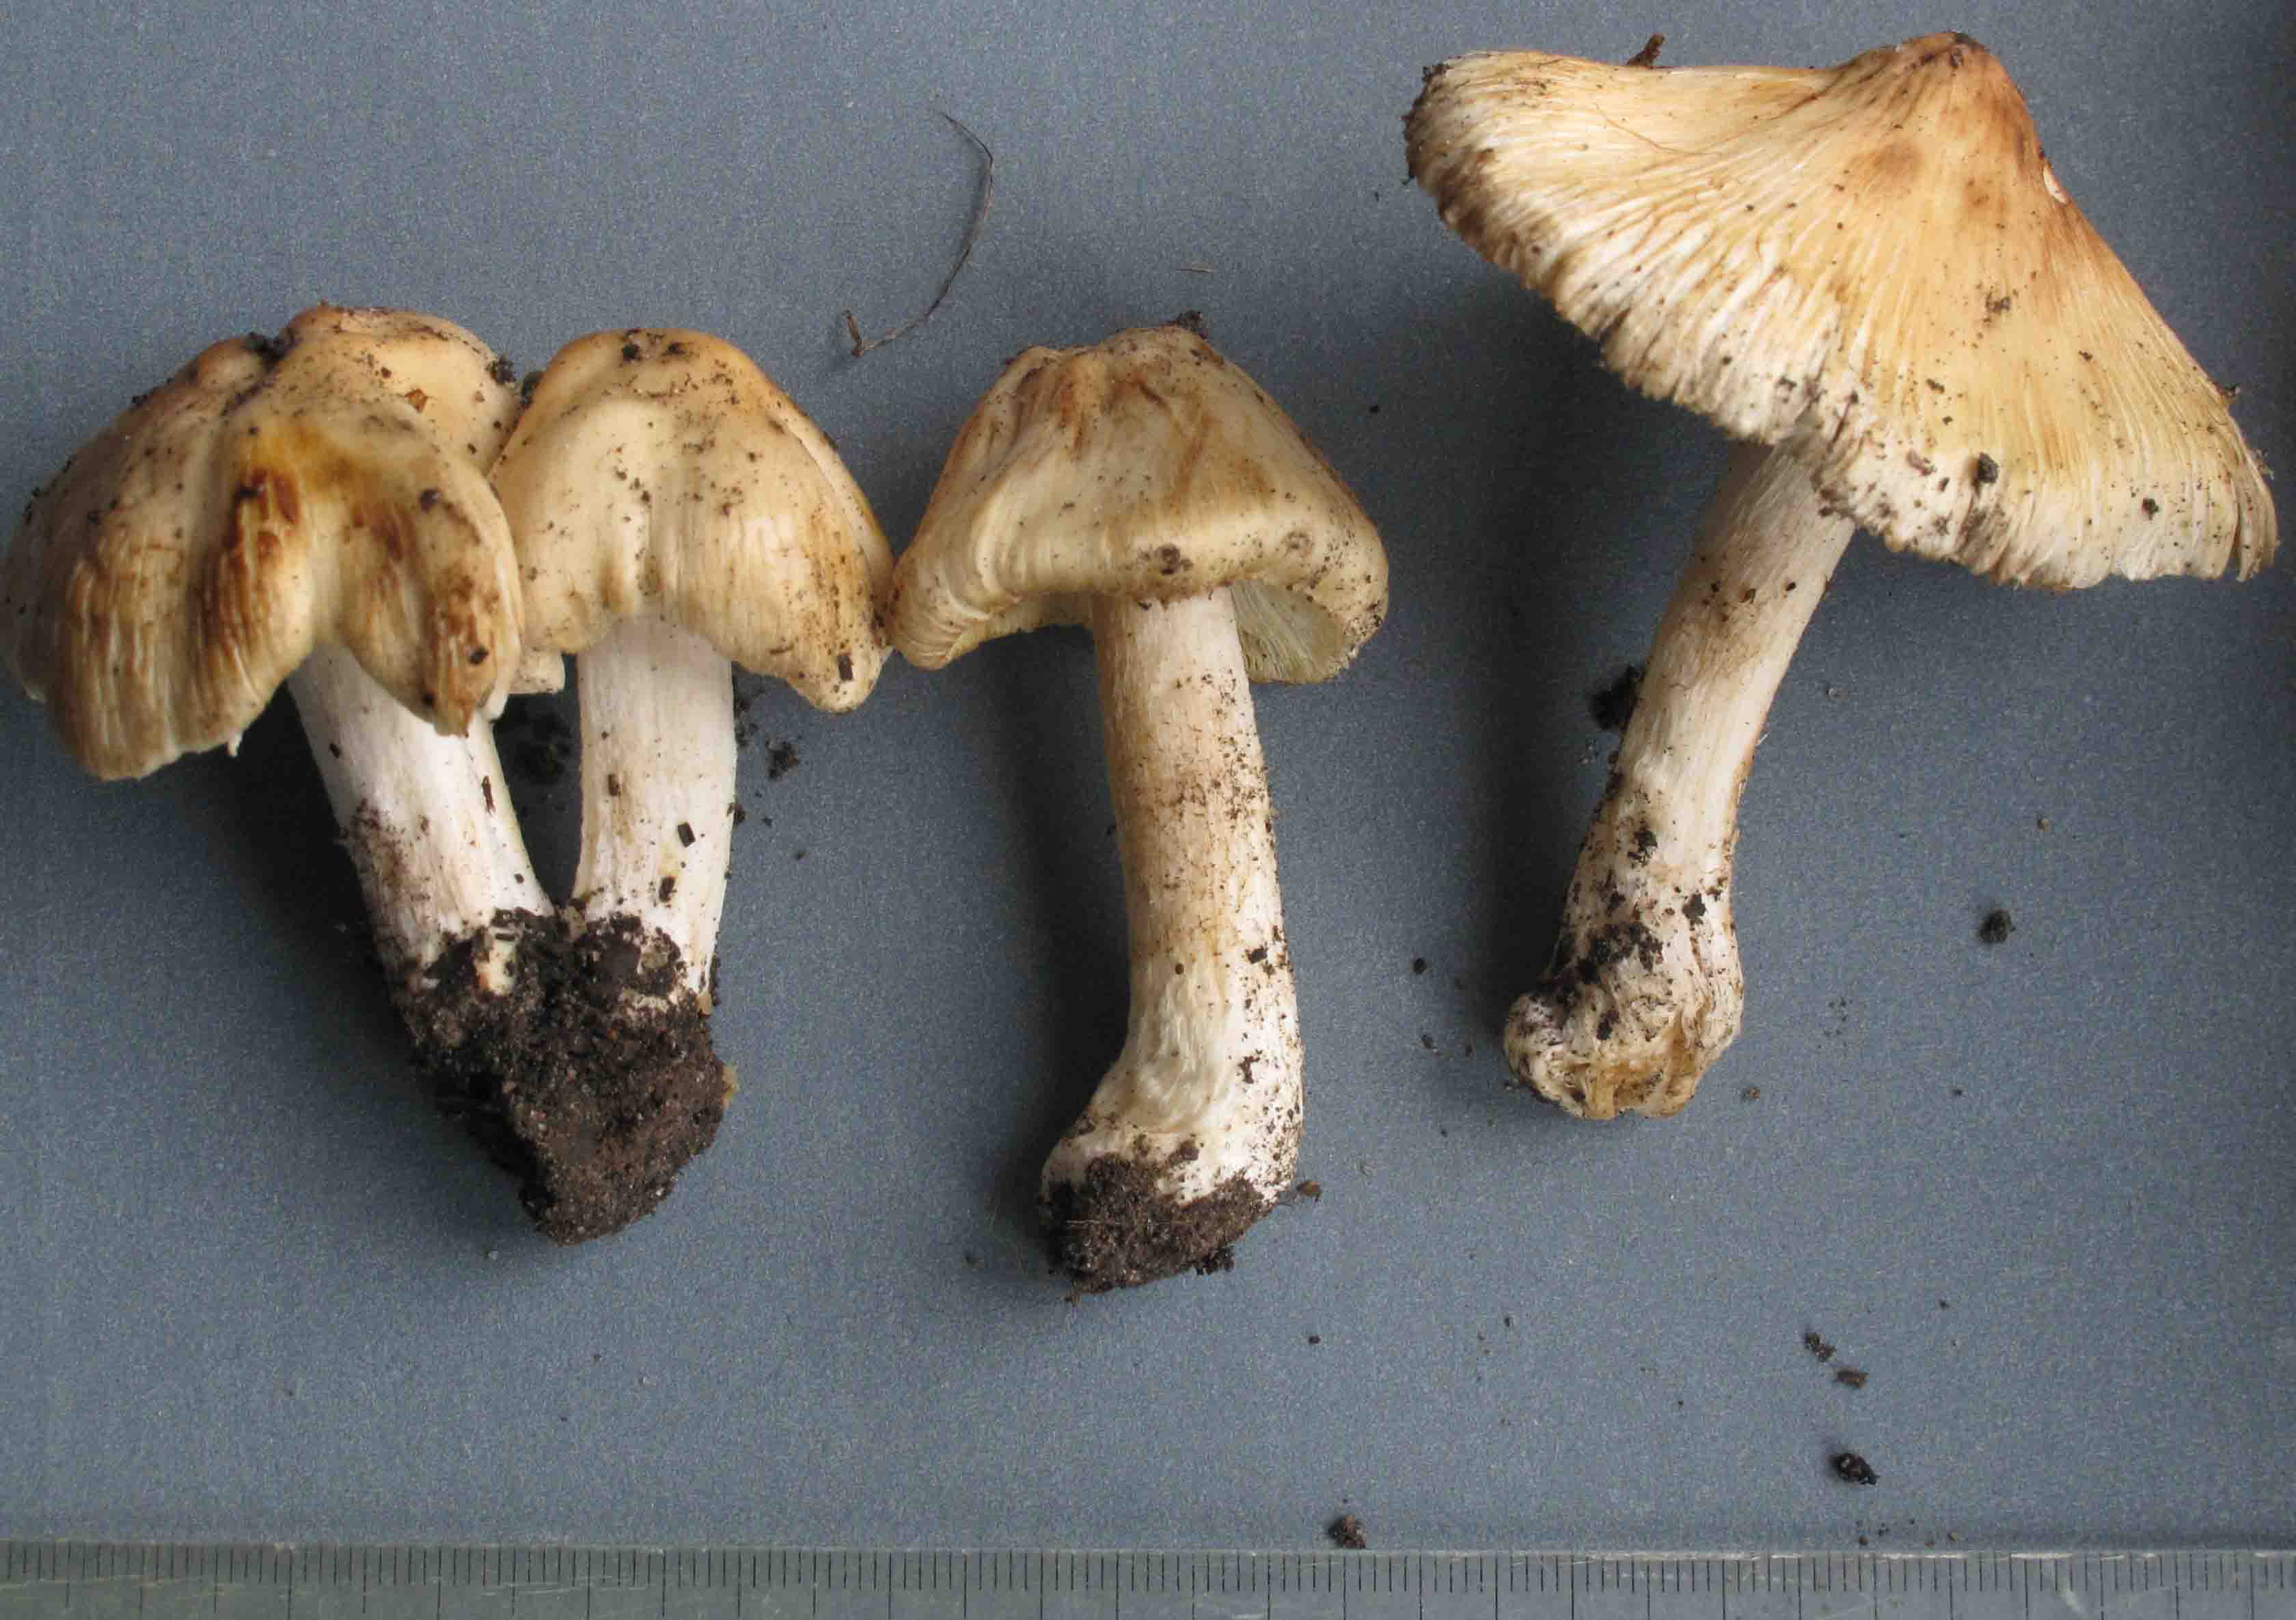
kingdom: Fungi
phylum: Basidiomycota
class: Agaricomycetes
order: Agaricales
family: Inocybaceae
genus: Pseudosperma
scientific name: Pseudosperma rimosum
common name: gulbladet trævlhat
